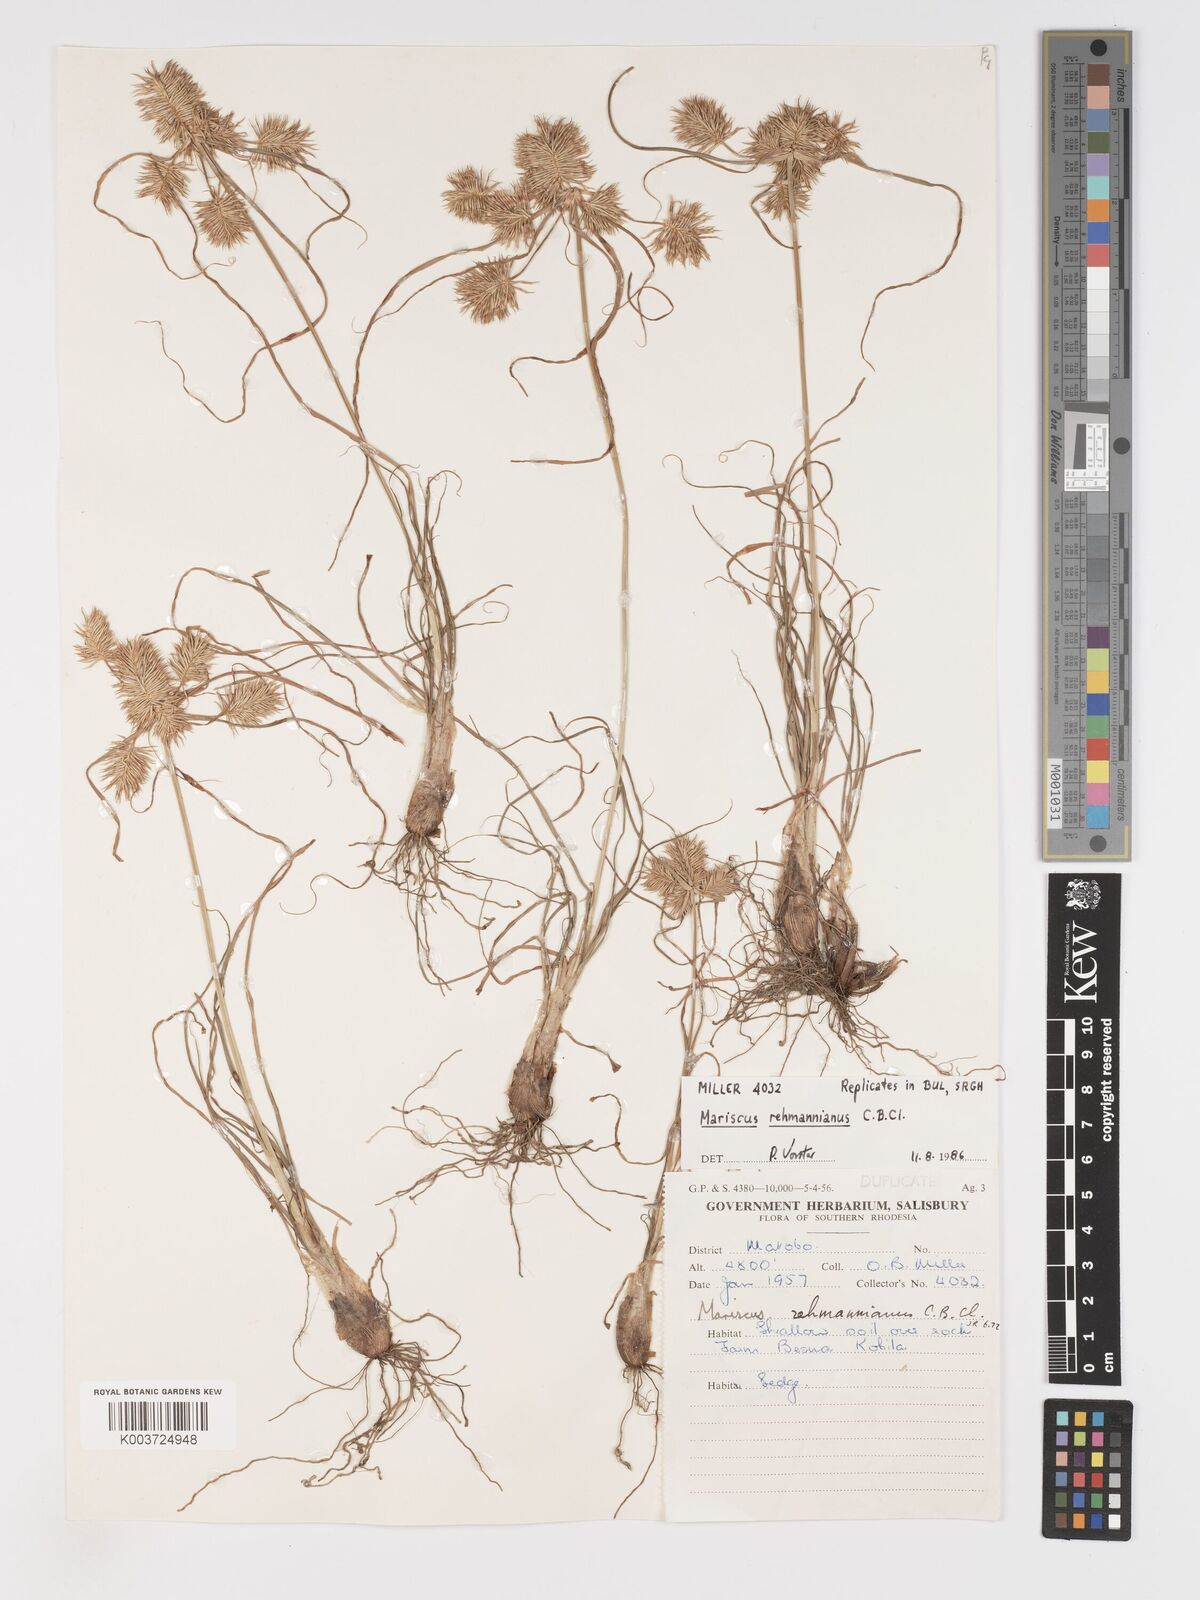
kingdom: Plantae
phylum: Tracheophyta
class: Liliopsida
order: Poales
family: Cyperaceae
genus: Cyperus
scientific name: Cyperus indecorus
